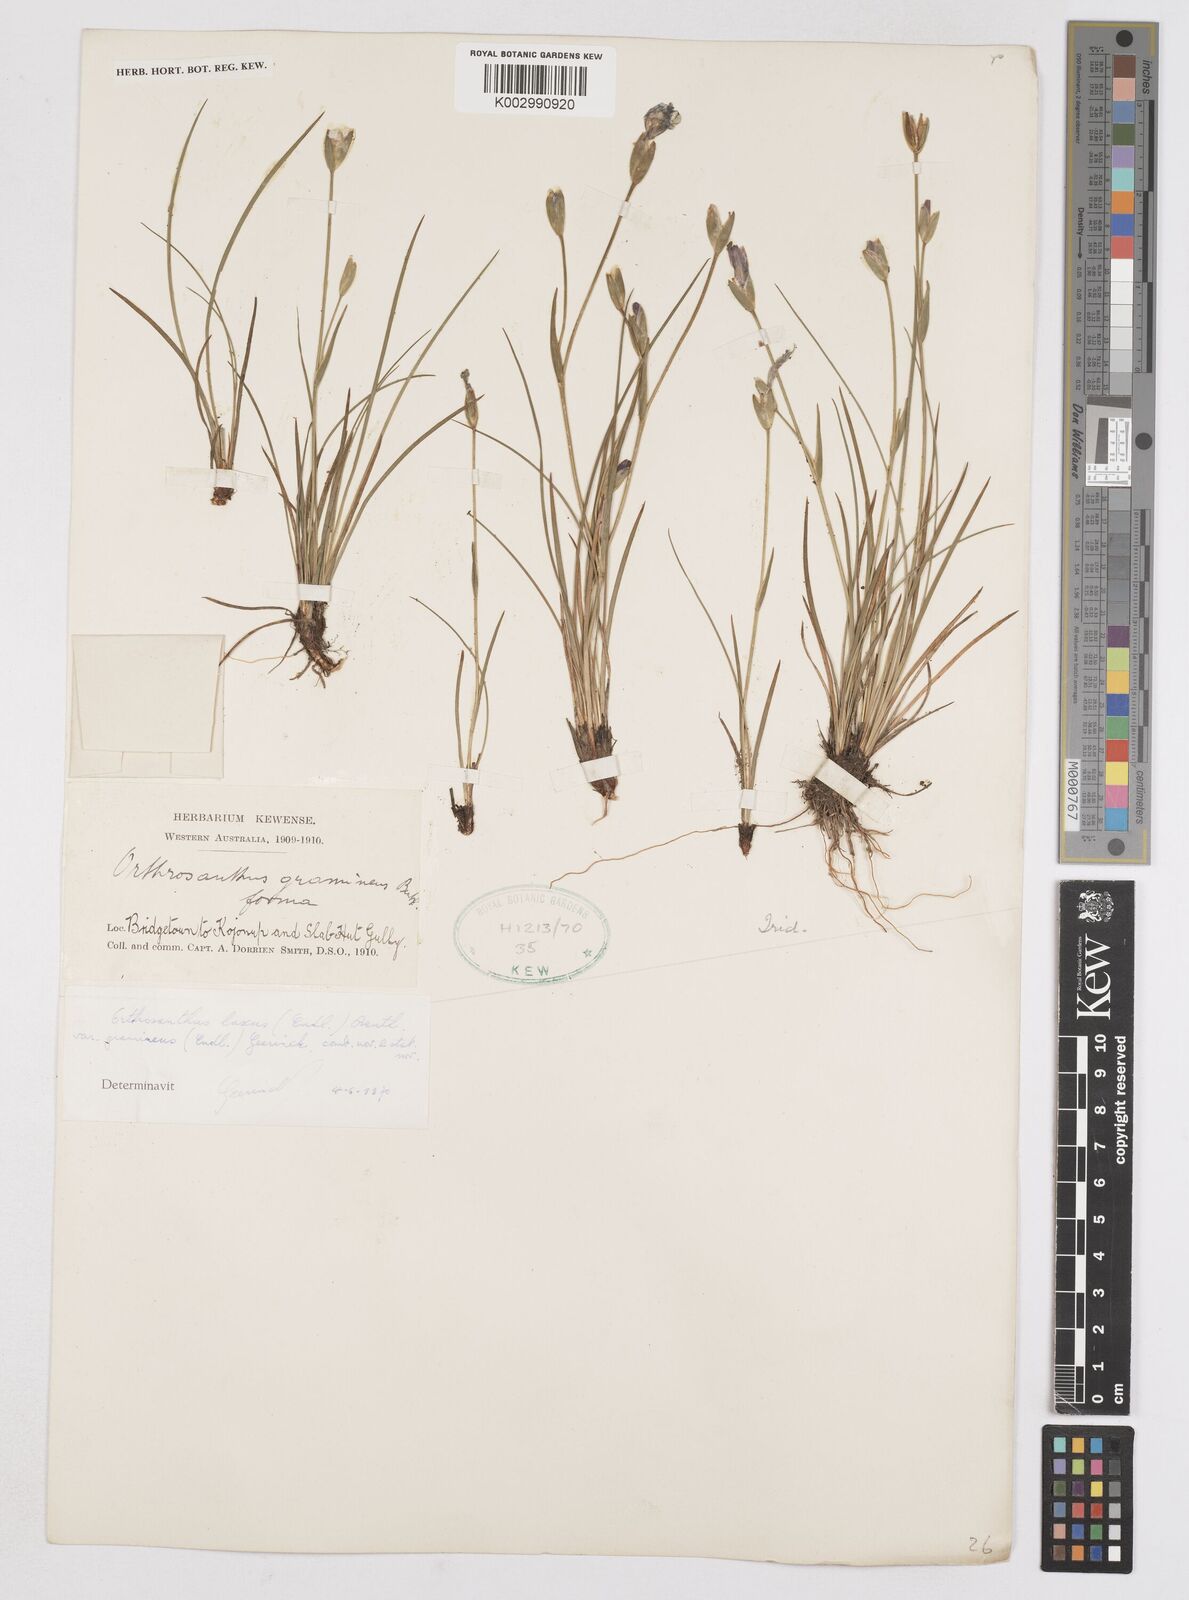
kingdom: Plantae
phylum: Tracheophyta
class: Liliopsida
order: Asparagales
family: Iridaceae
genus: Orthrosanthus
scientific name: Orthrosanthus laxus
